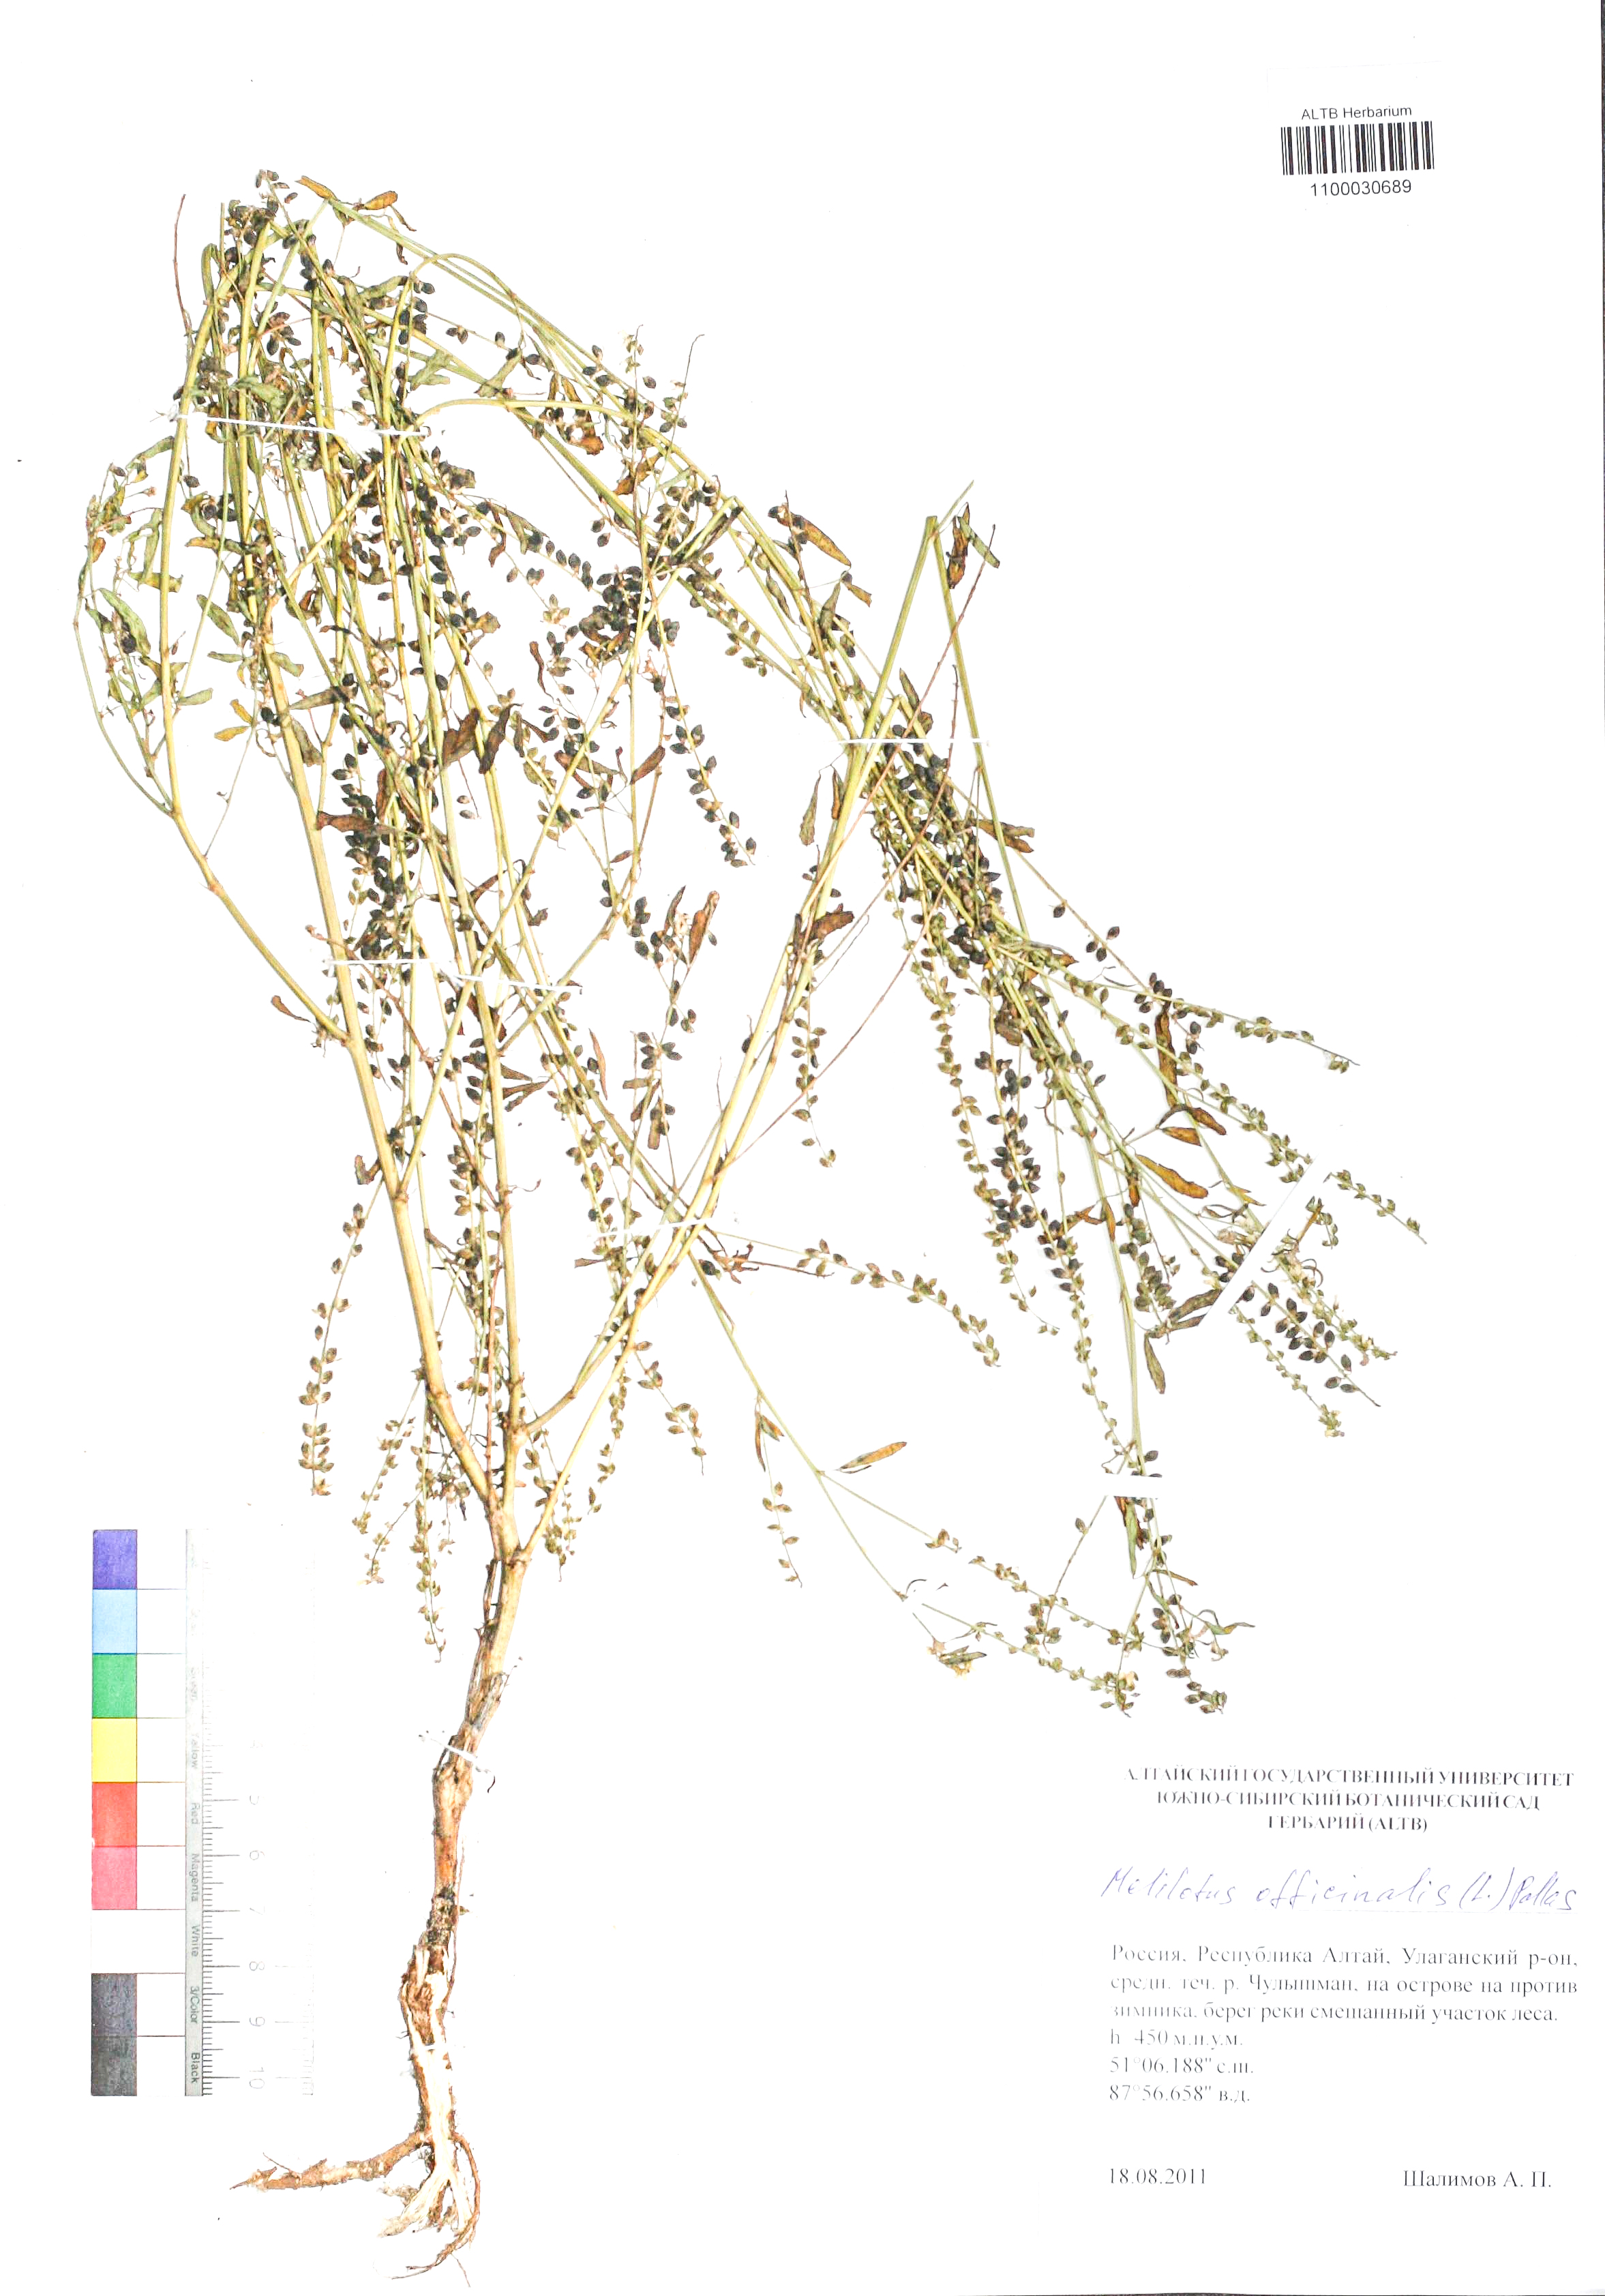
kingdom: Plantae
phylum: Tracheophyta
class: Magnoliopsida
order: Fabales
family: Fabaceae
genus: Melilotus
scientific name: Melilotus officinalis
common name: Sweetclover
